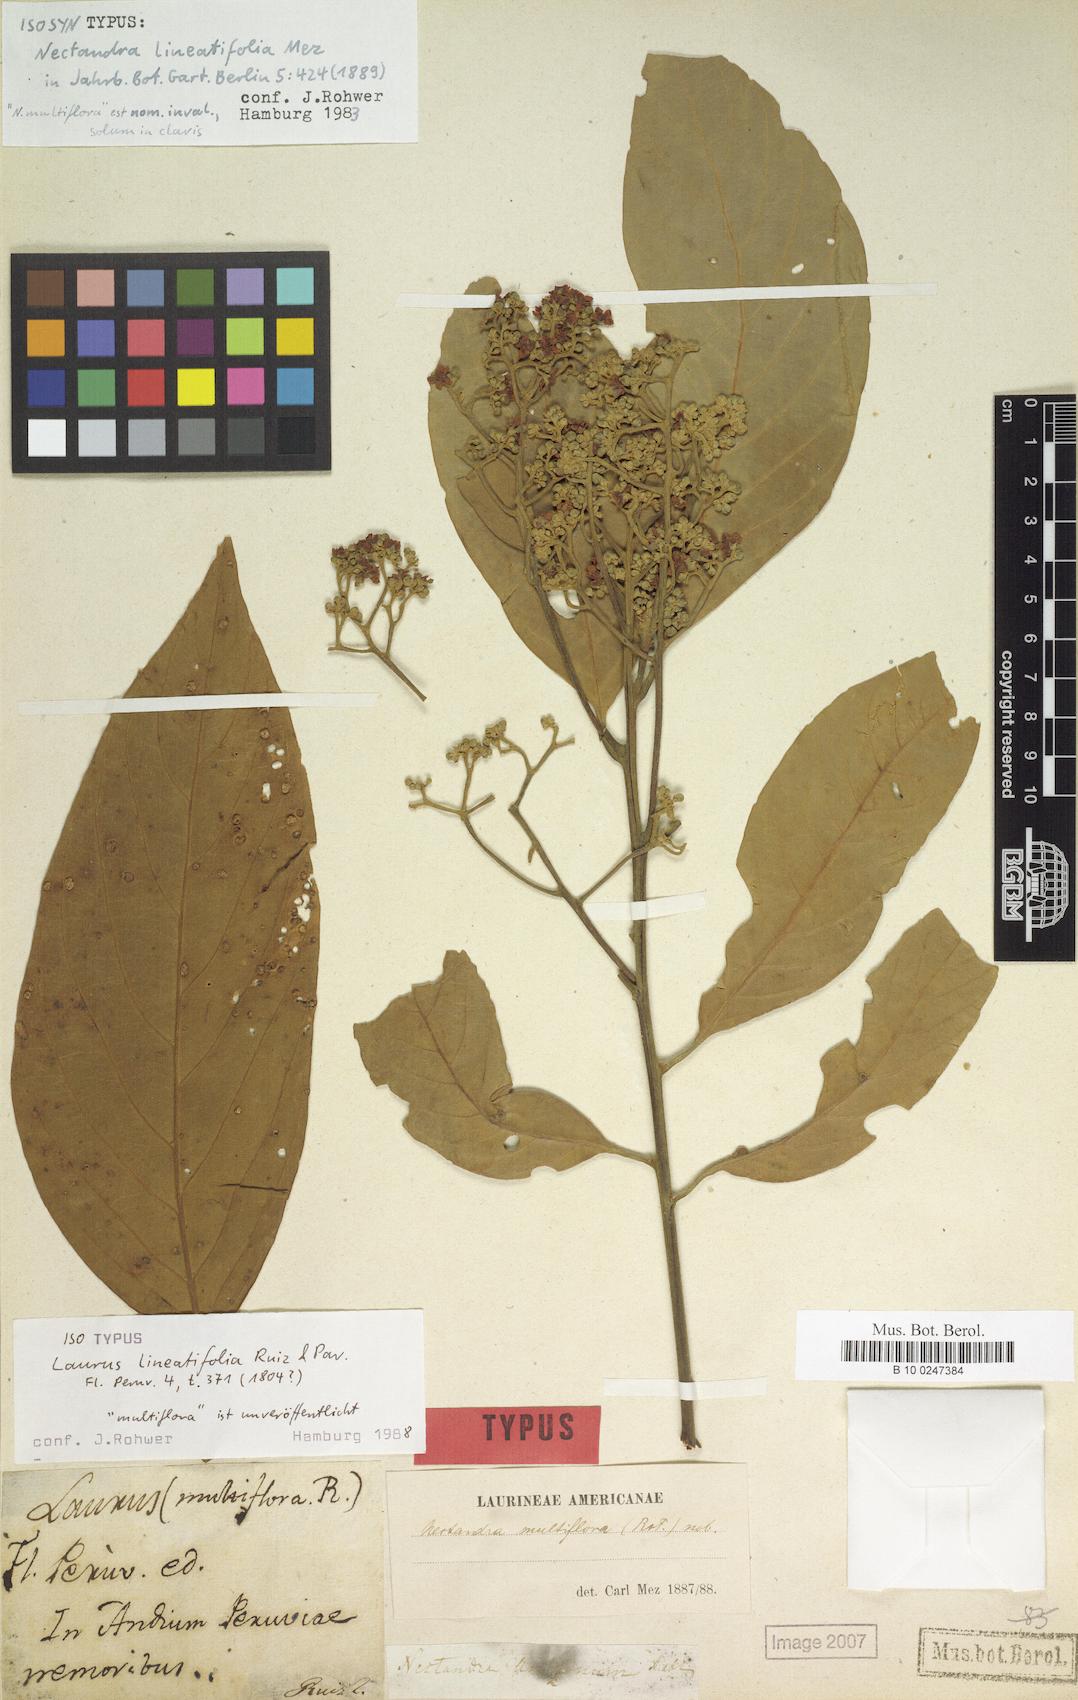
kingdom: Plantae
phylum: Tracheophyta
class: Magnoliopsida
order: Laurales
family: Lauraceae
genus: Nectandra
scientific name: Nectandra lineatifolia
